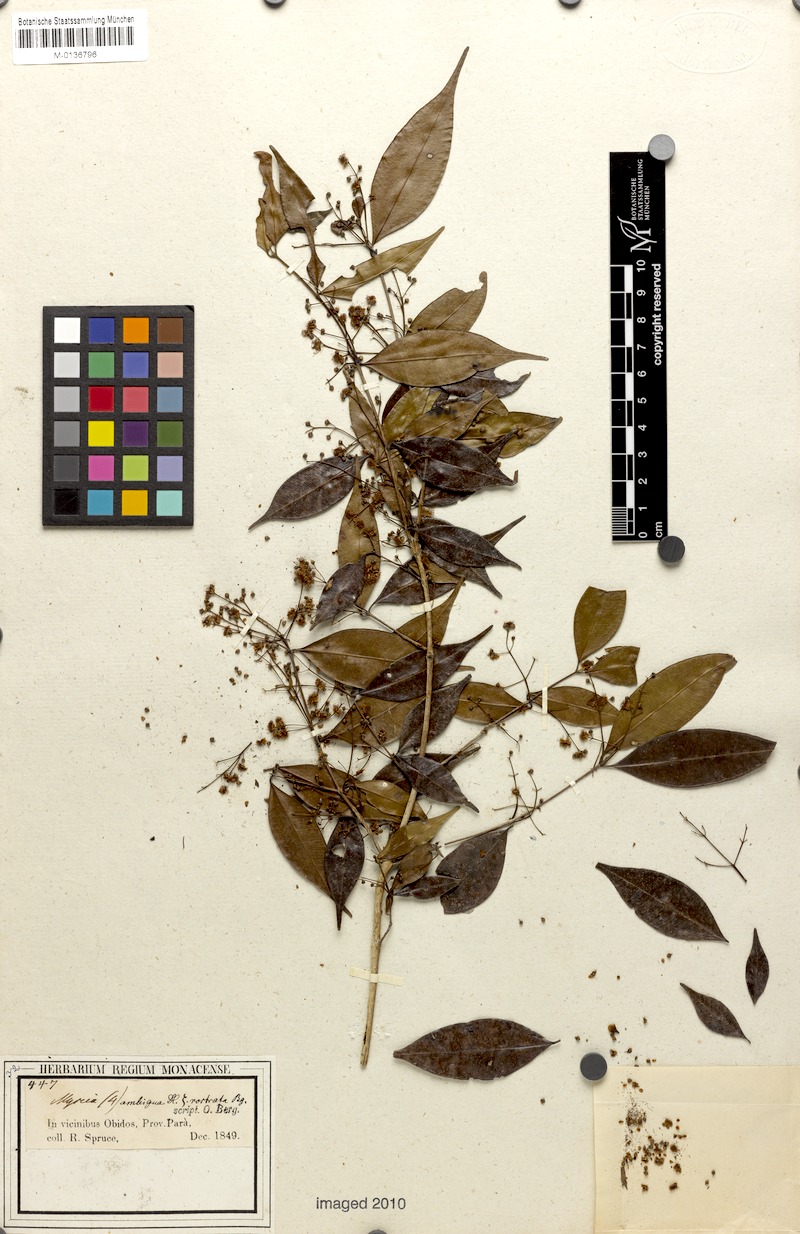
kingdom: Plantae
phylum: Tracheophyta
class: Magnoliopsida
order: Myrtales
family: Myrtaceae
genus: Myrcia
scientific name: Myrcia sylvatica
